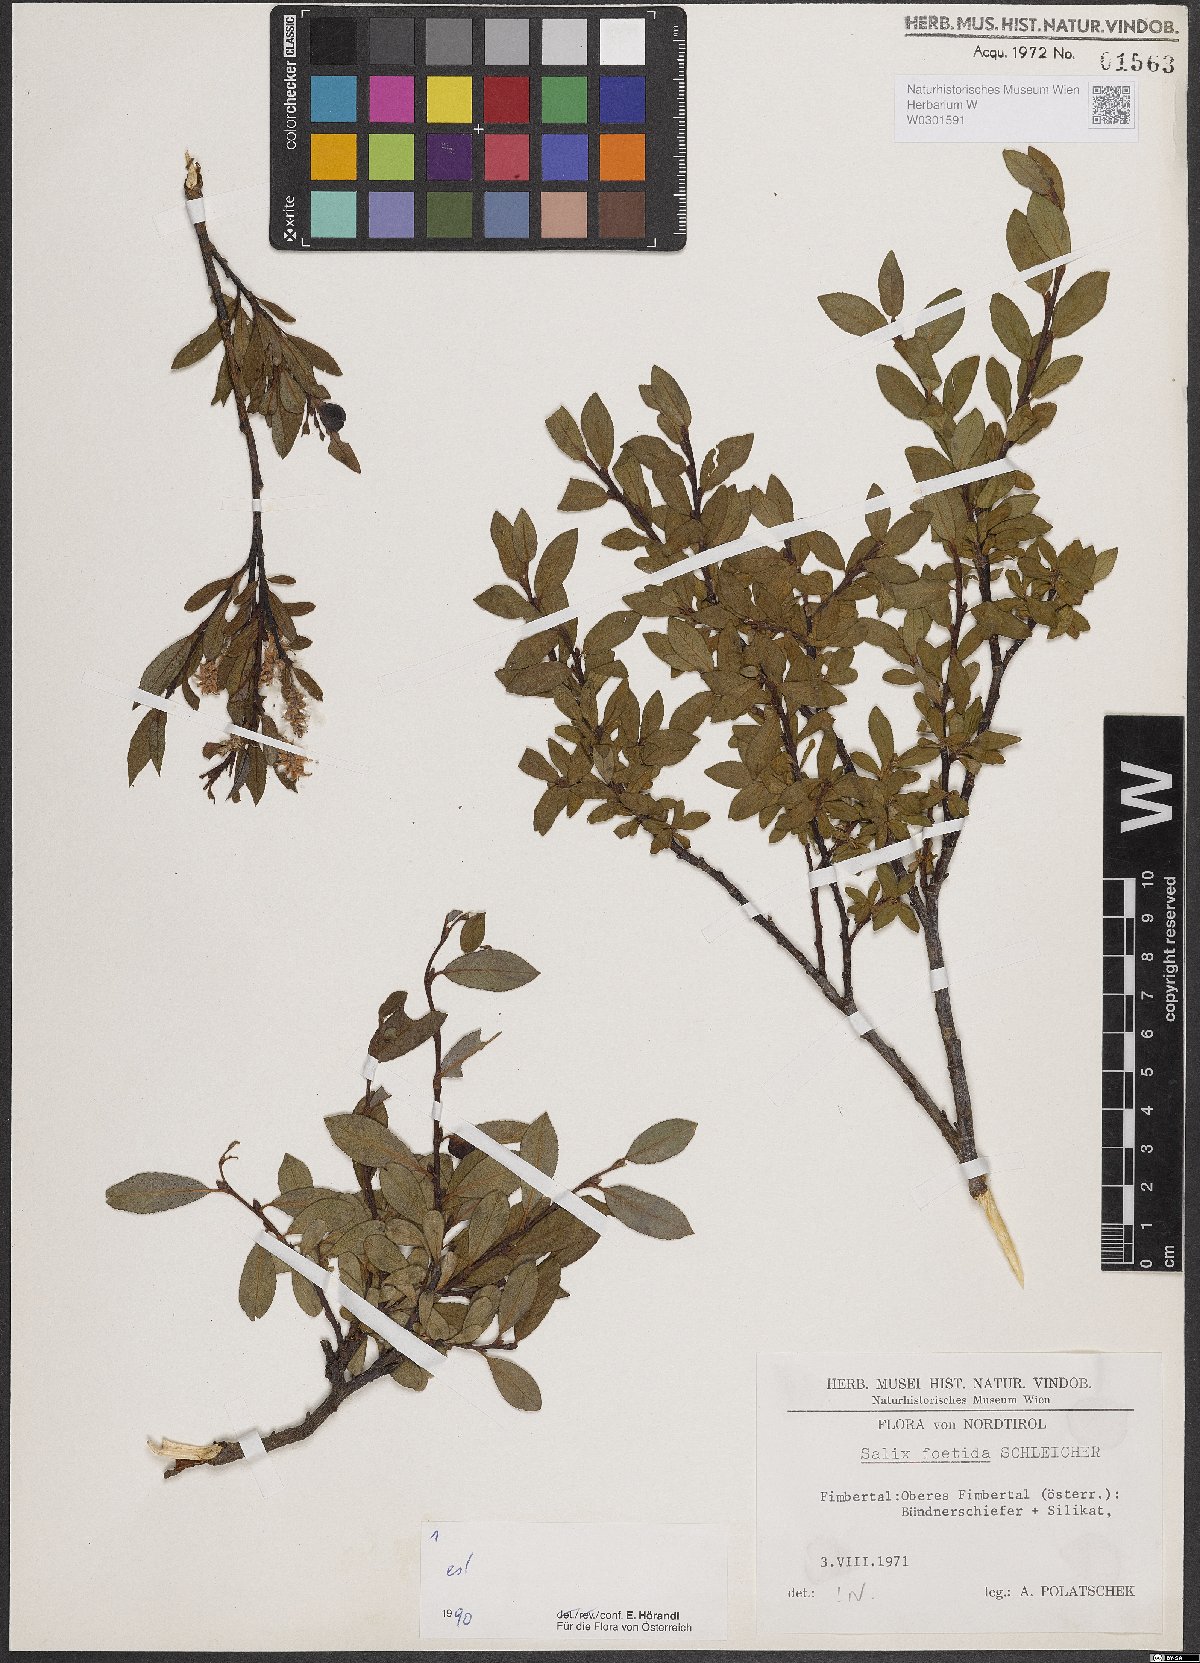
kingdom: Plantae
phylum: Tracheophyta
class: Magnoliopsida
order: Malpighiales
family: Salicaceae
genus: Salix
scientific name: Salix foetida
